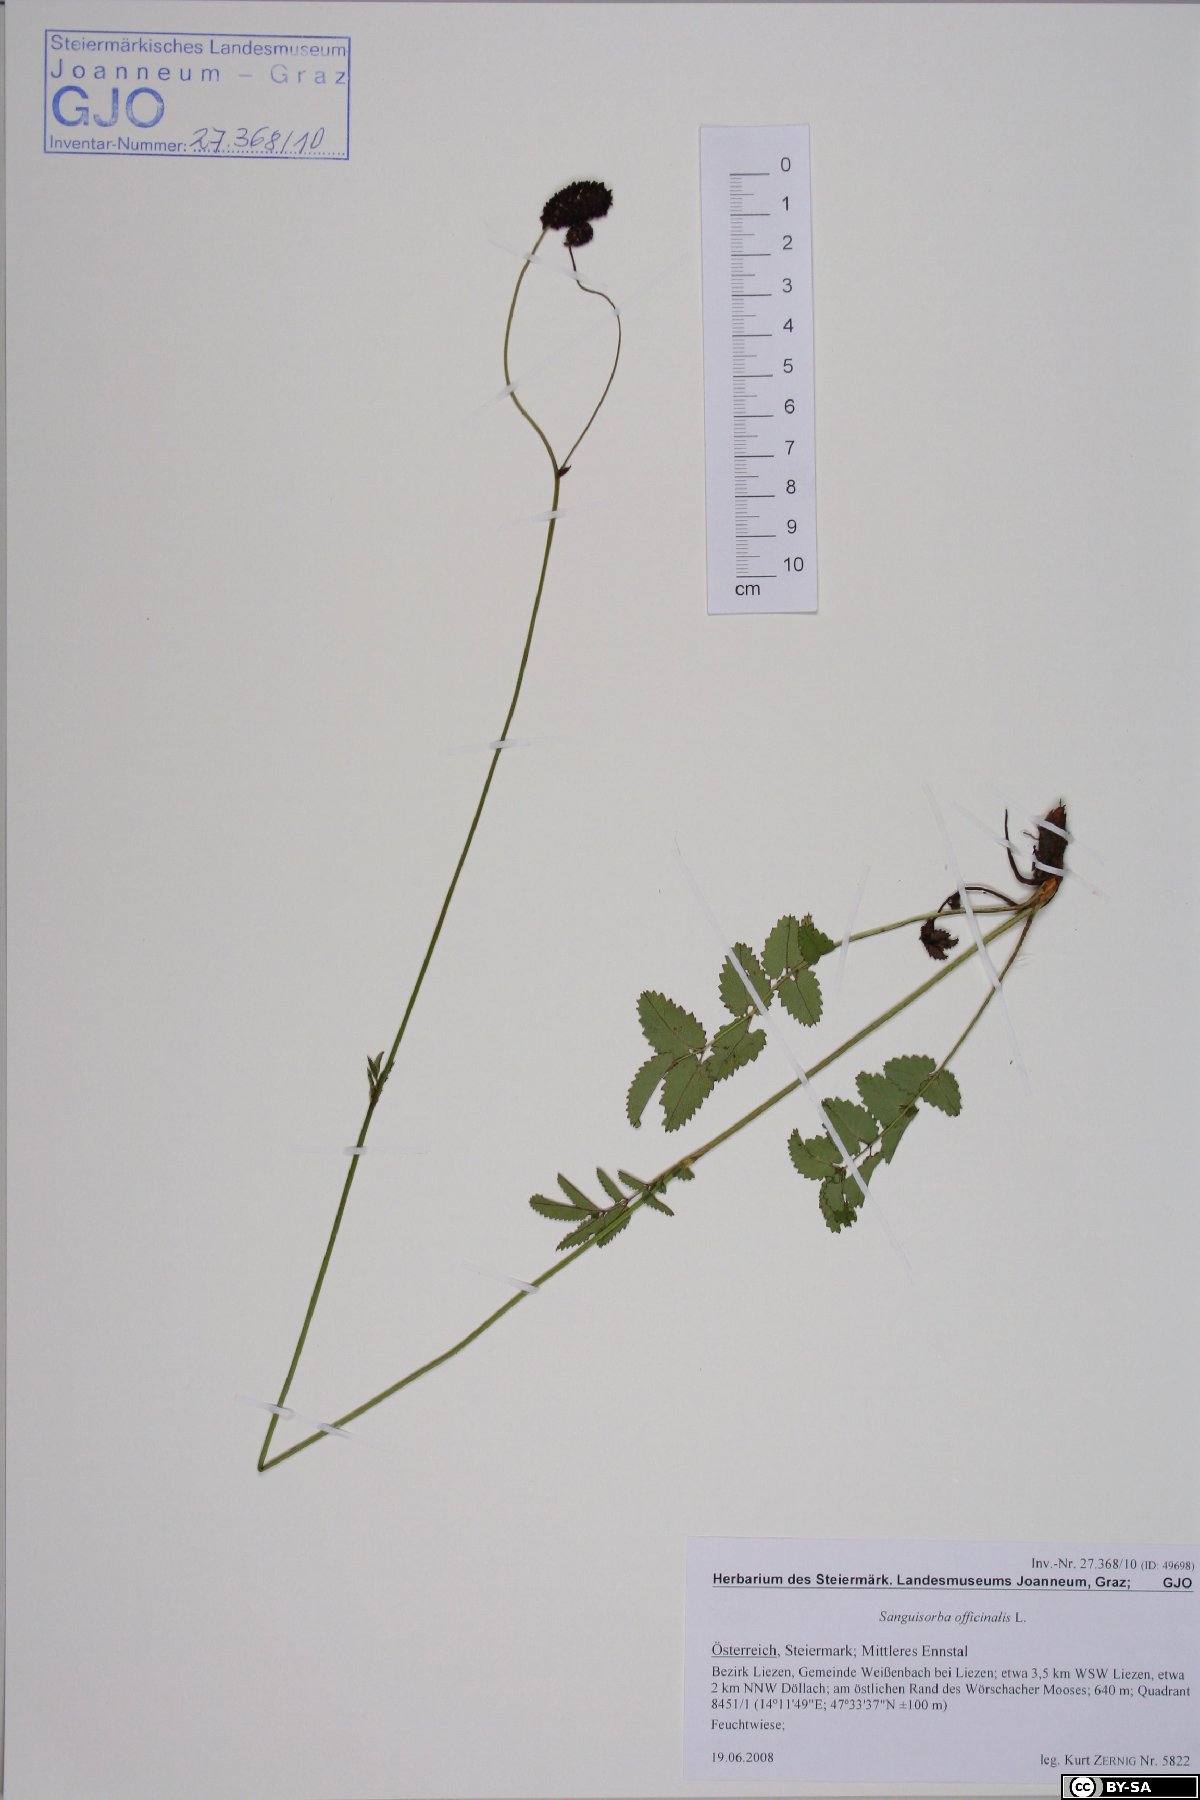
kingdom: Plantae
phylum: Tracheophyta
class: Magnoliopsida
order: Rosales
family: Rosaceae
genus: Sanguisorba
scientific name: Sanguisorba officinalis
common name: Great burnet
